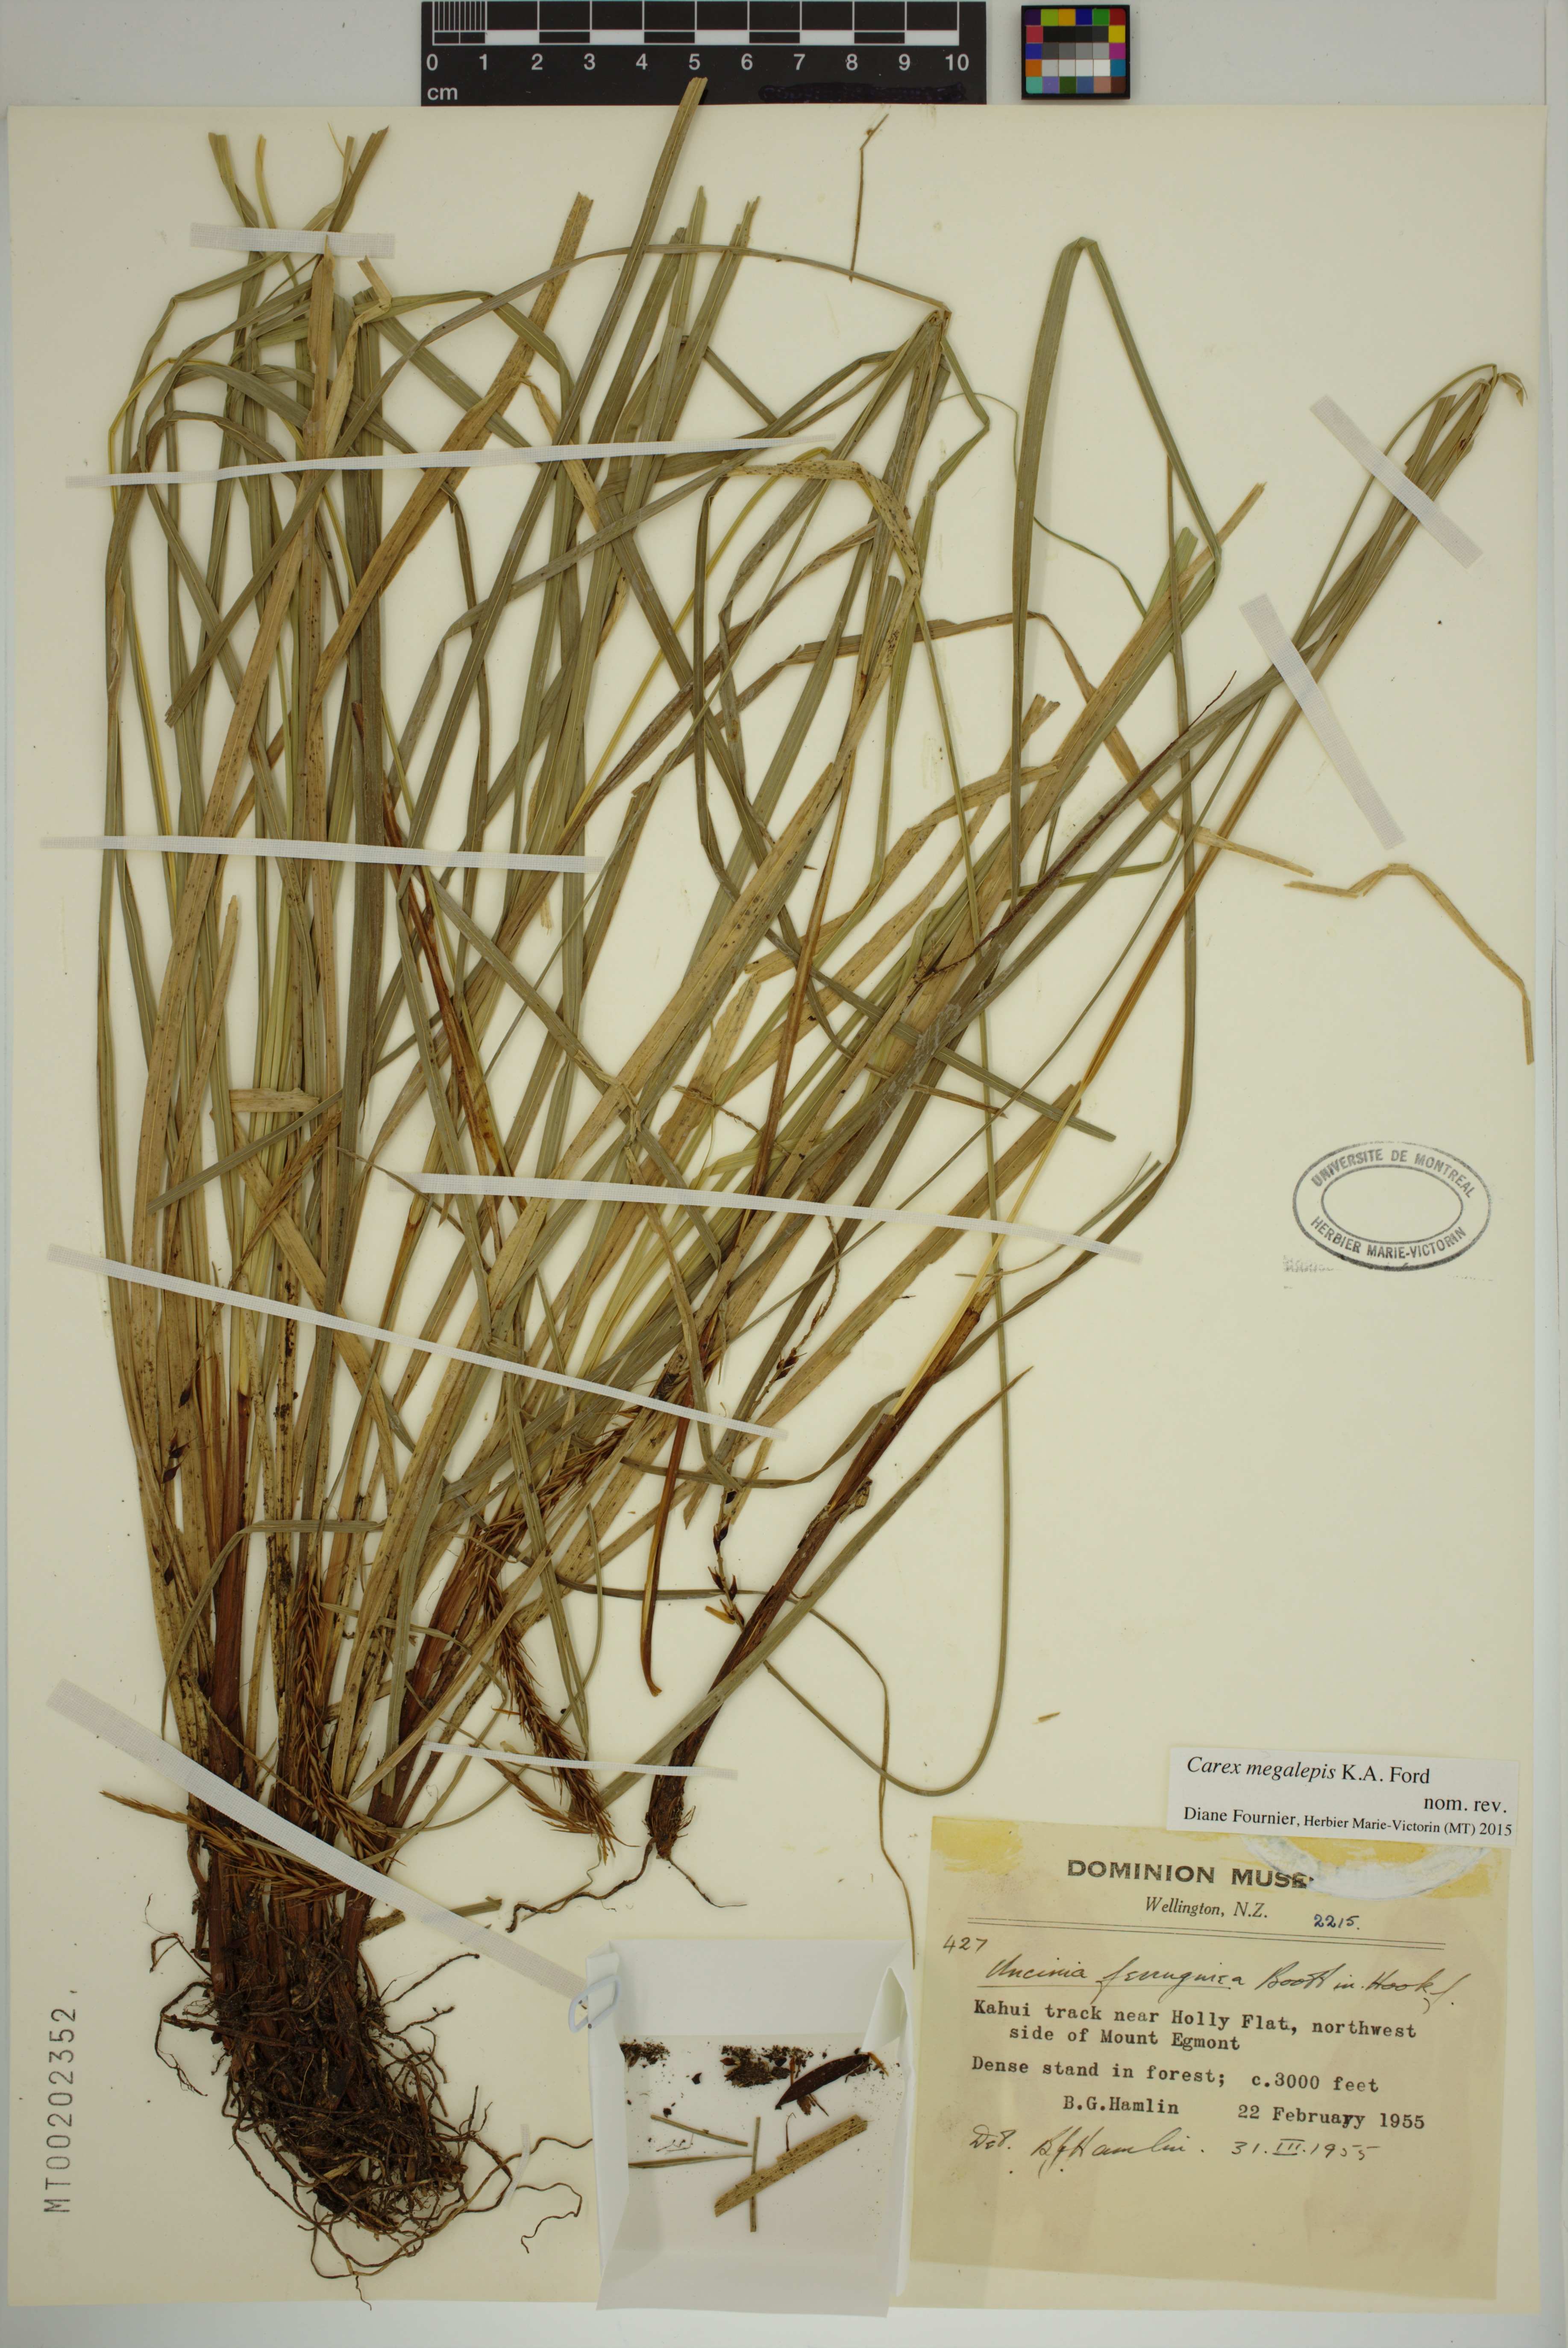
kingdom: Plantae
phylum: Tracheophyta
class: Liliopsida
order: Poales
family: Cyperaceae
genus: Carex
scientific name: Carex megalepis
